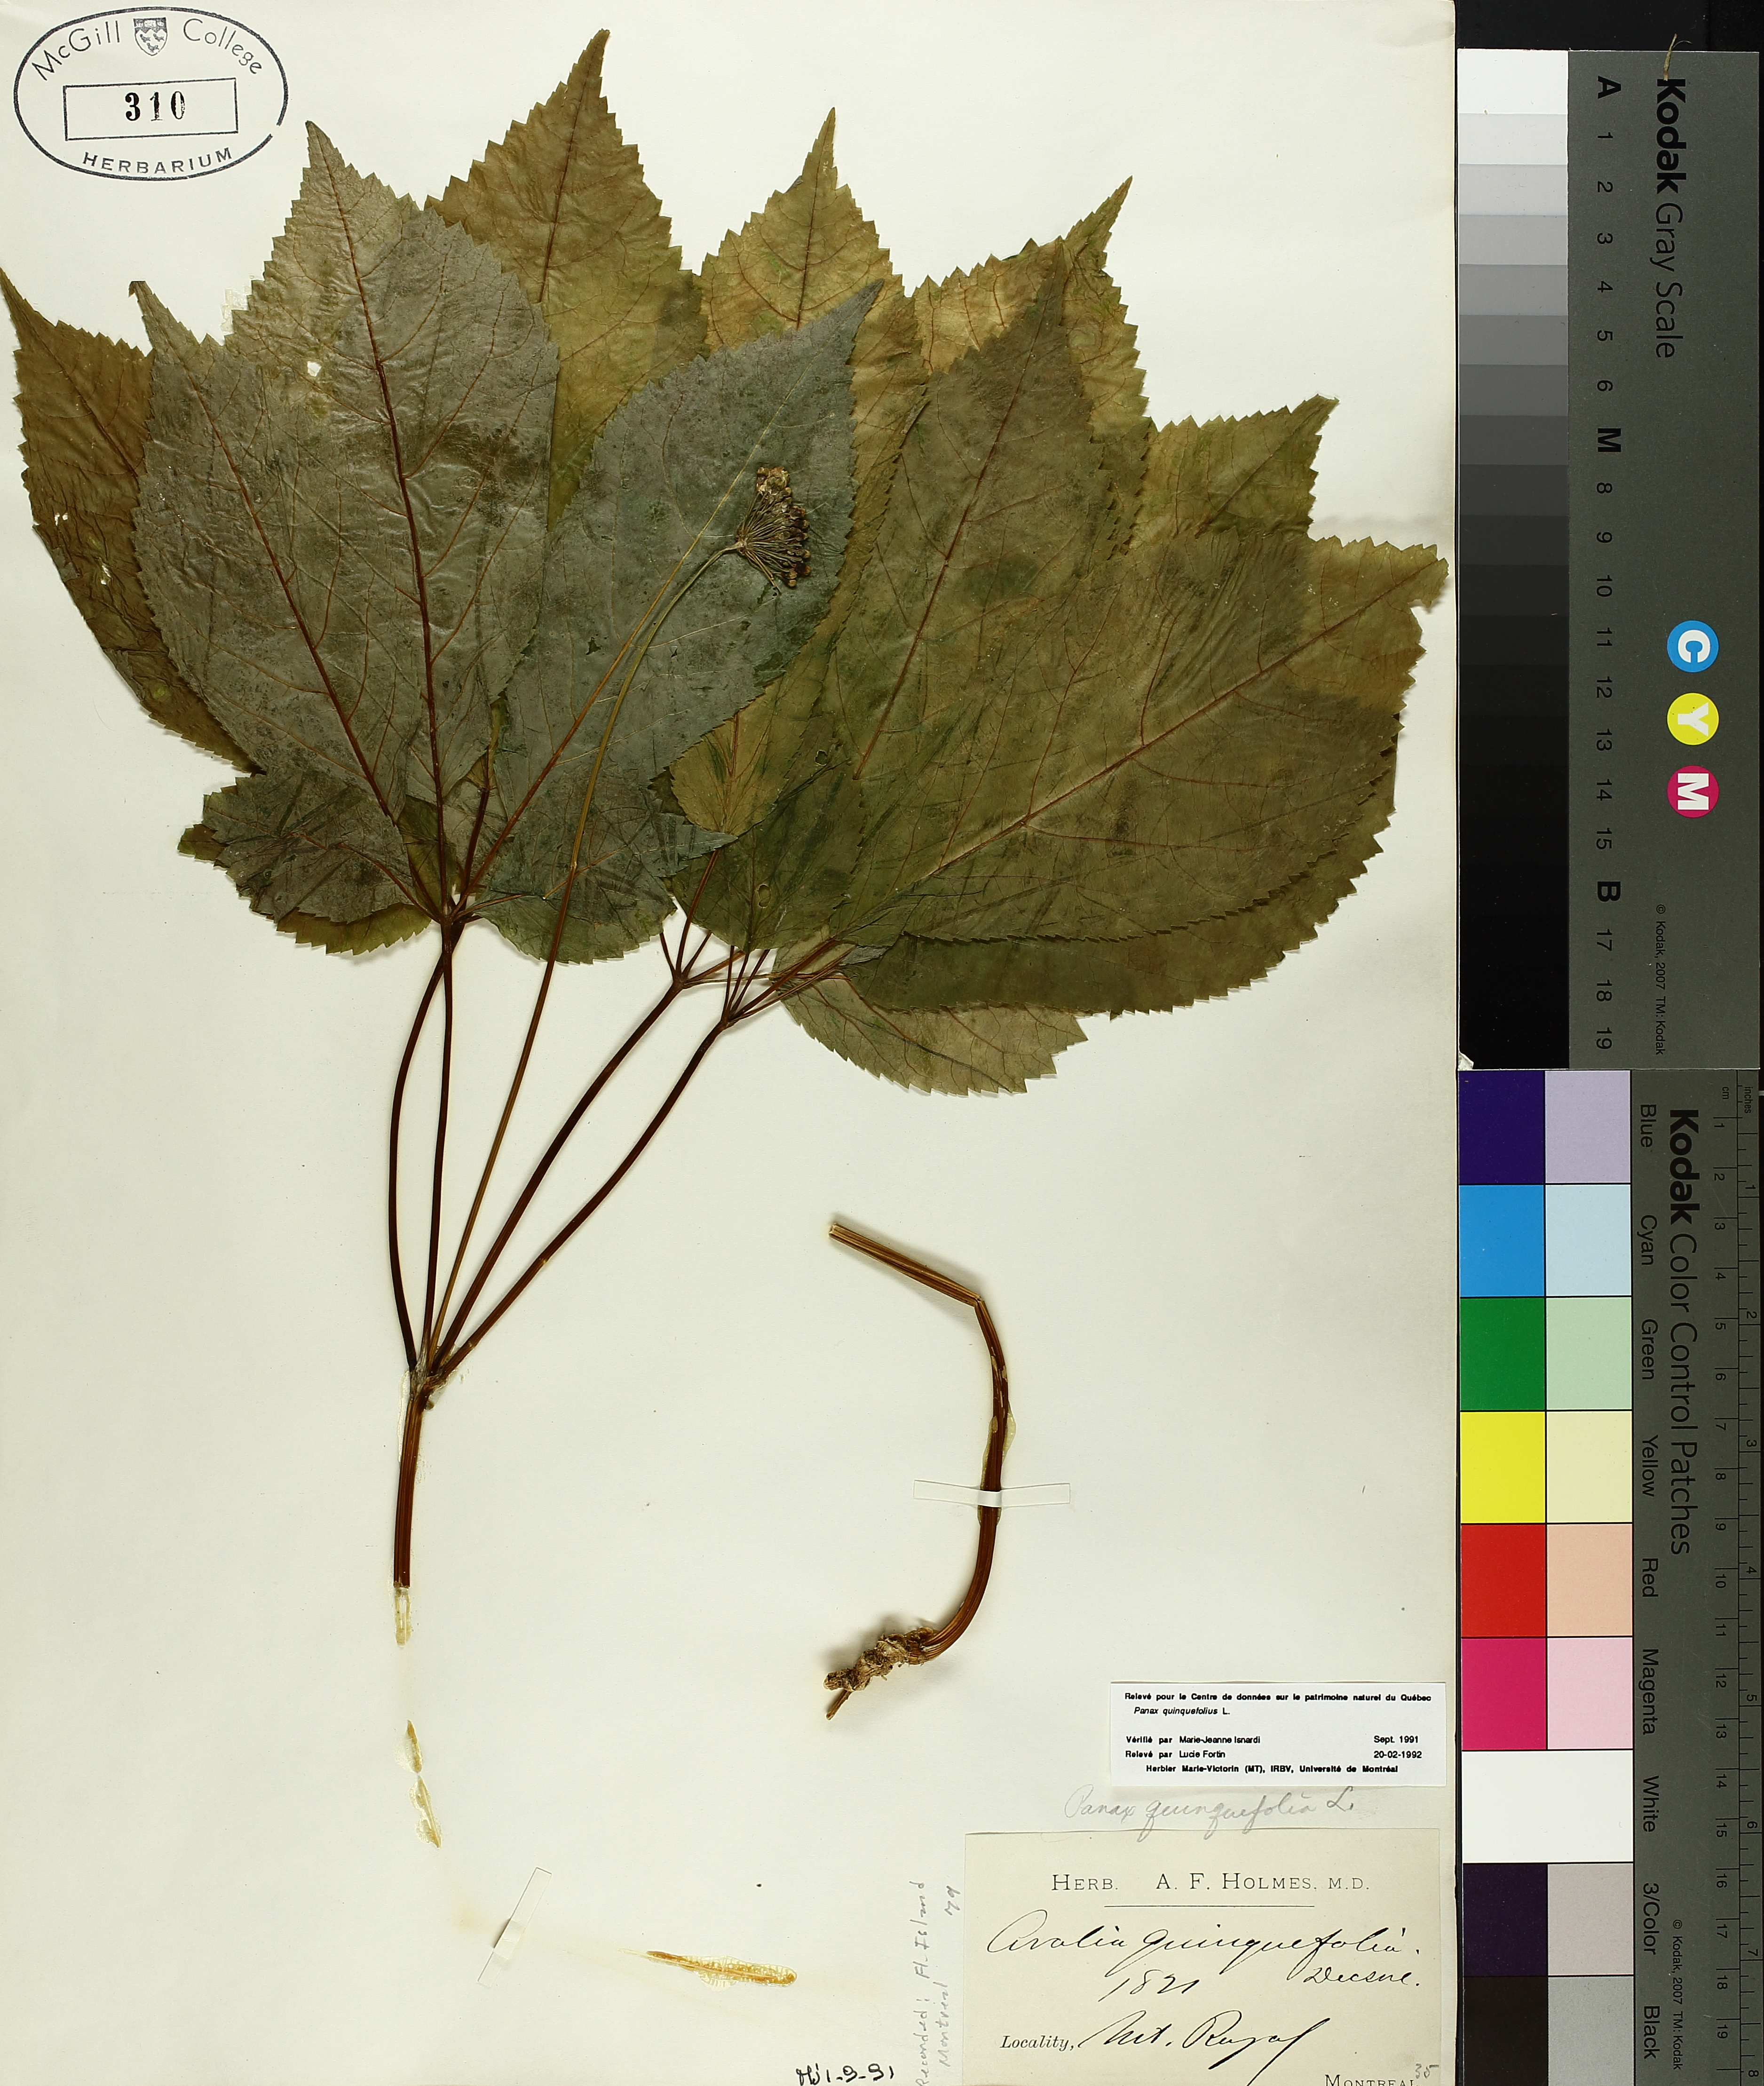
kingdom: Plantae
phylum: Tracheophyta
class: Magnoliopsida
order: Apiales
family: Araliaceae
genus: Panax
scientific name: Panax quinquefolius
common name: American ginseng
